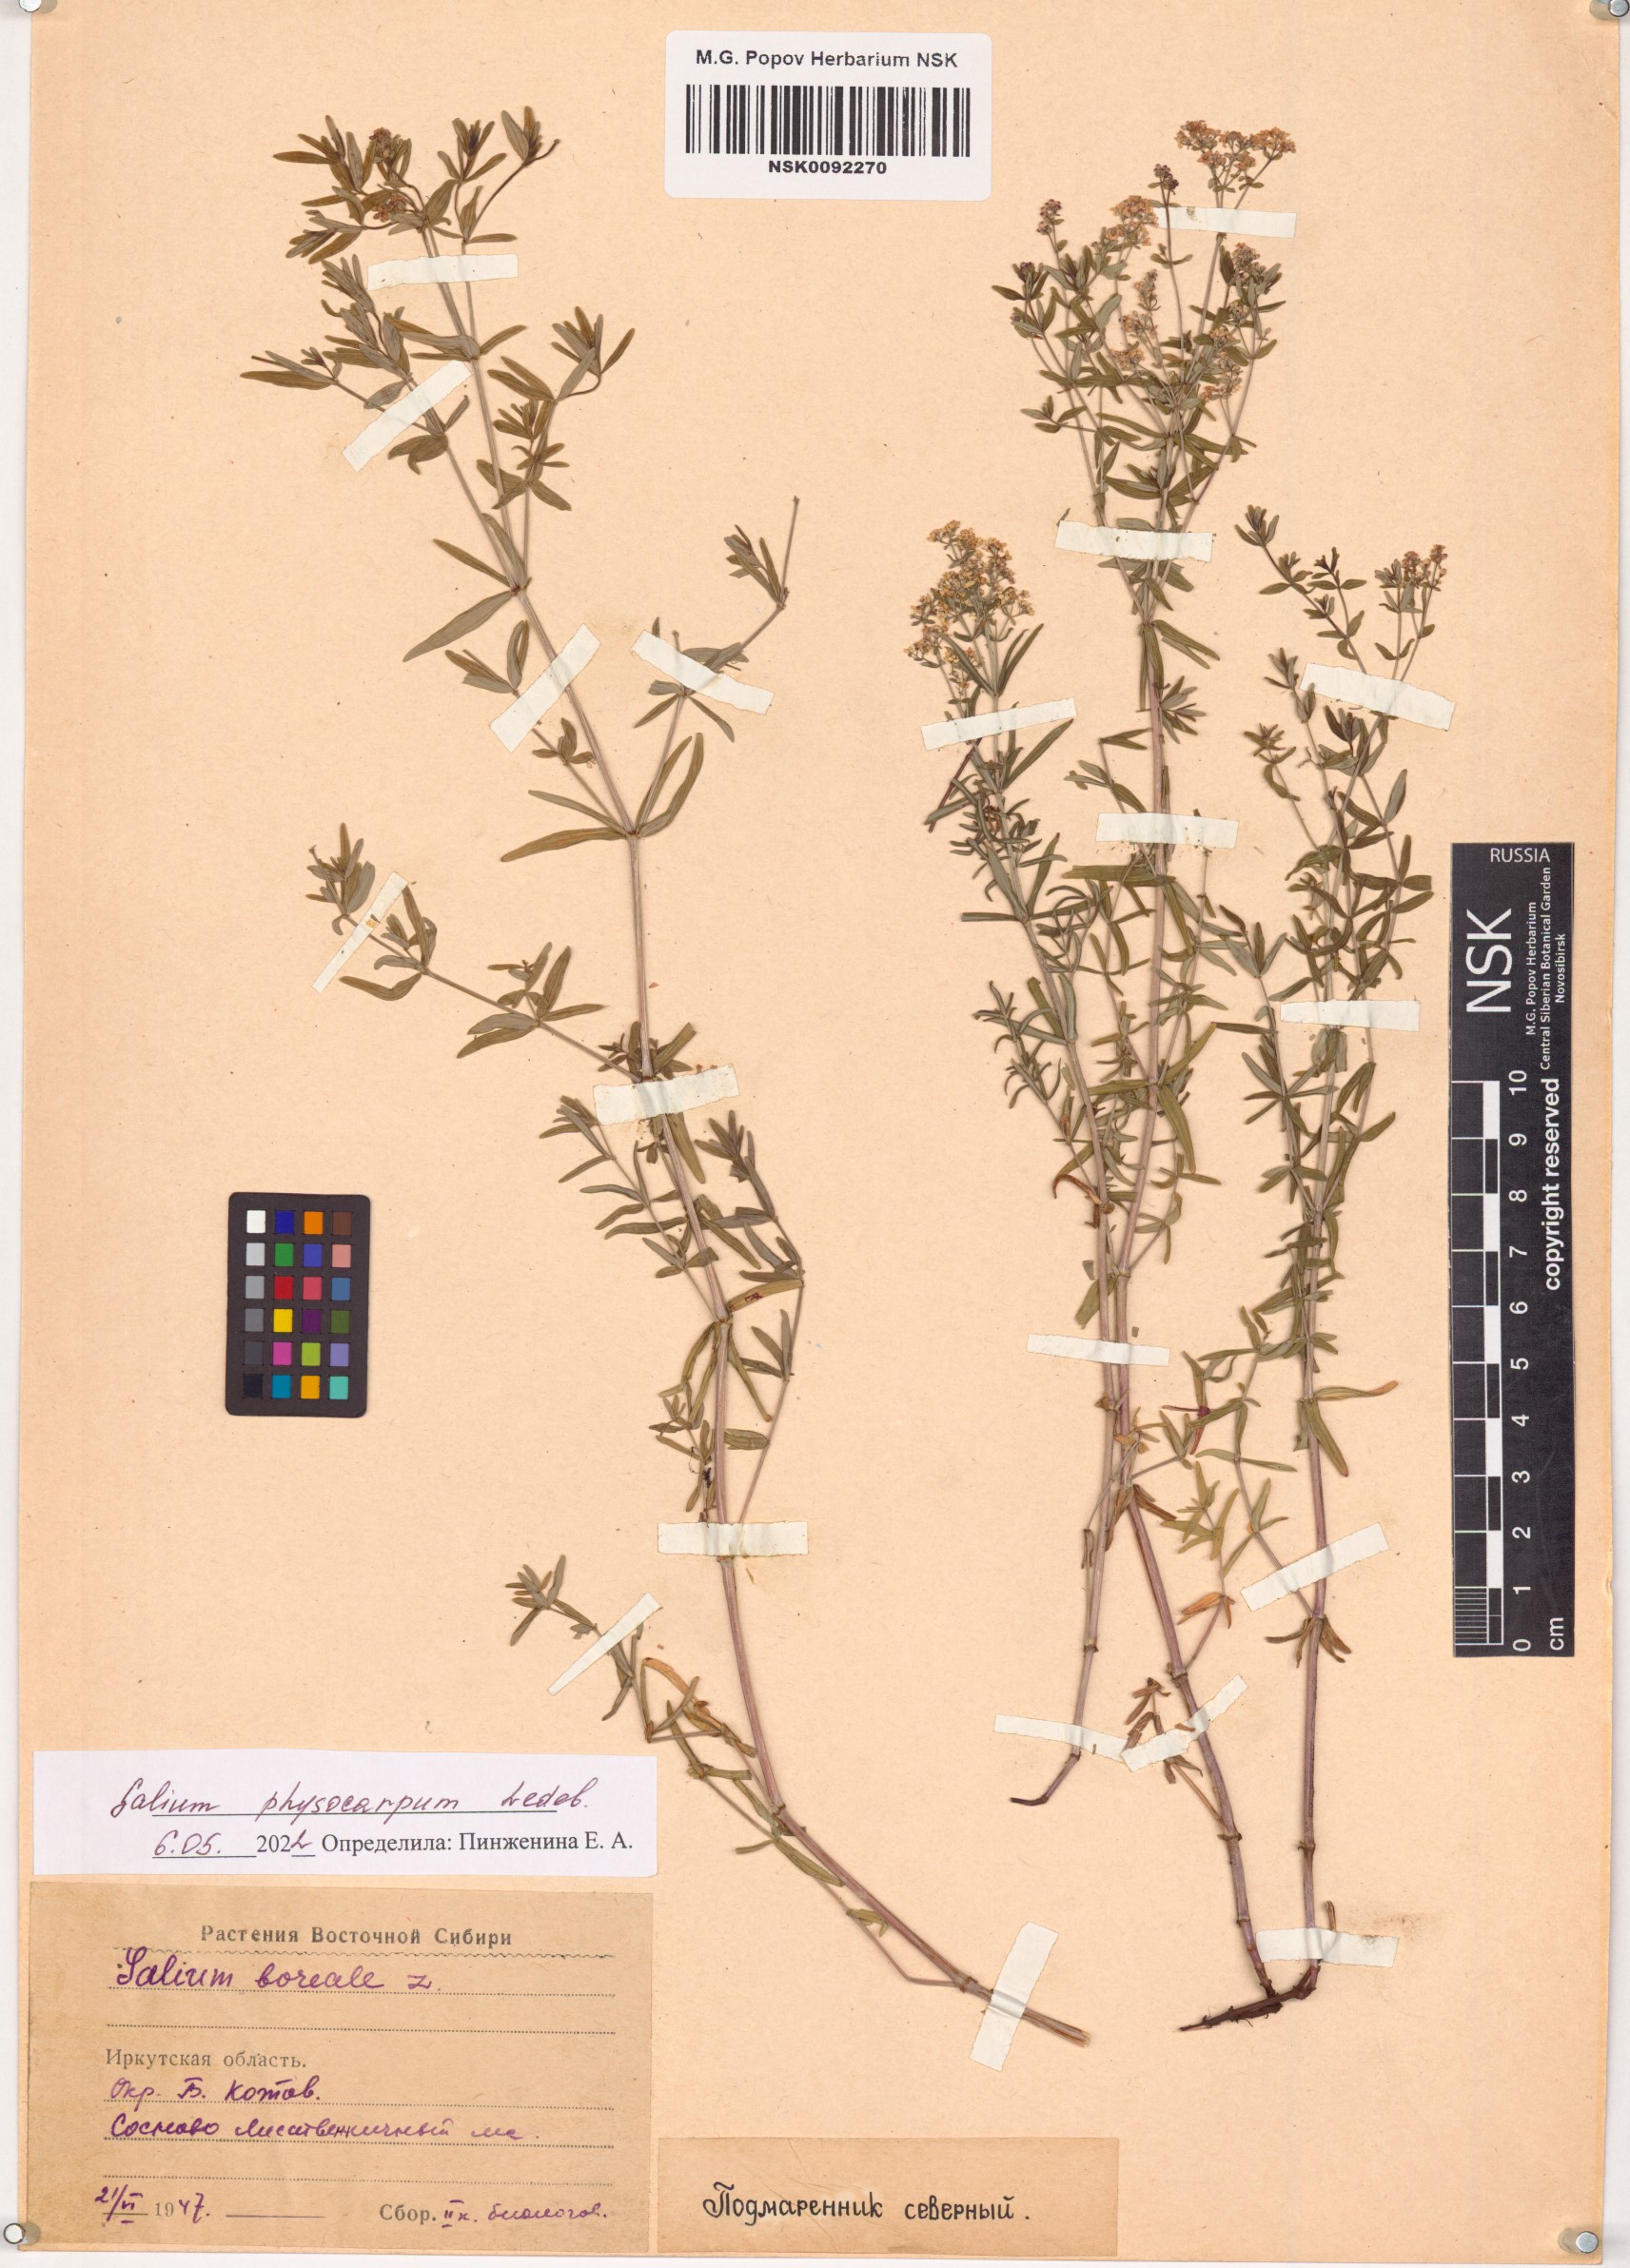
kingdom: Plantae
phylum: Tracheophyta
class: Magnoliopsida
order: Gentianales
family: Rubiaceae
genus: Galium
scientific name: Galium rubioides
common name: European bedstraw
